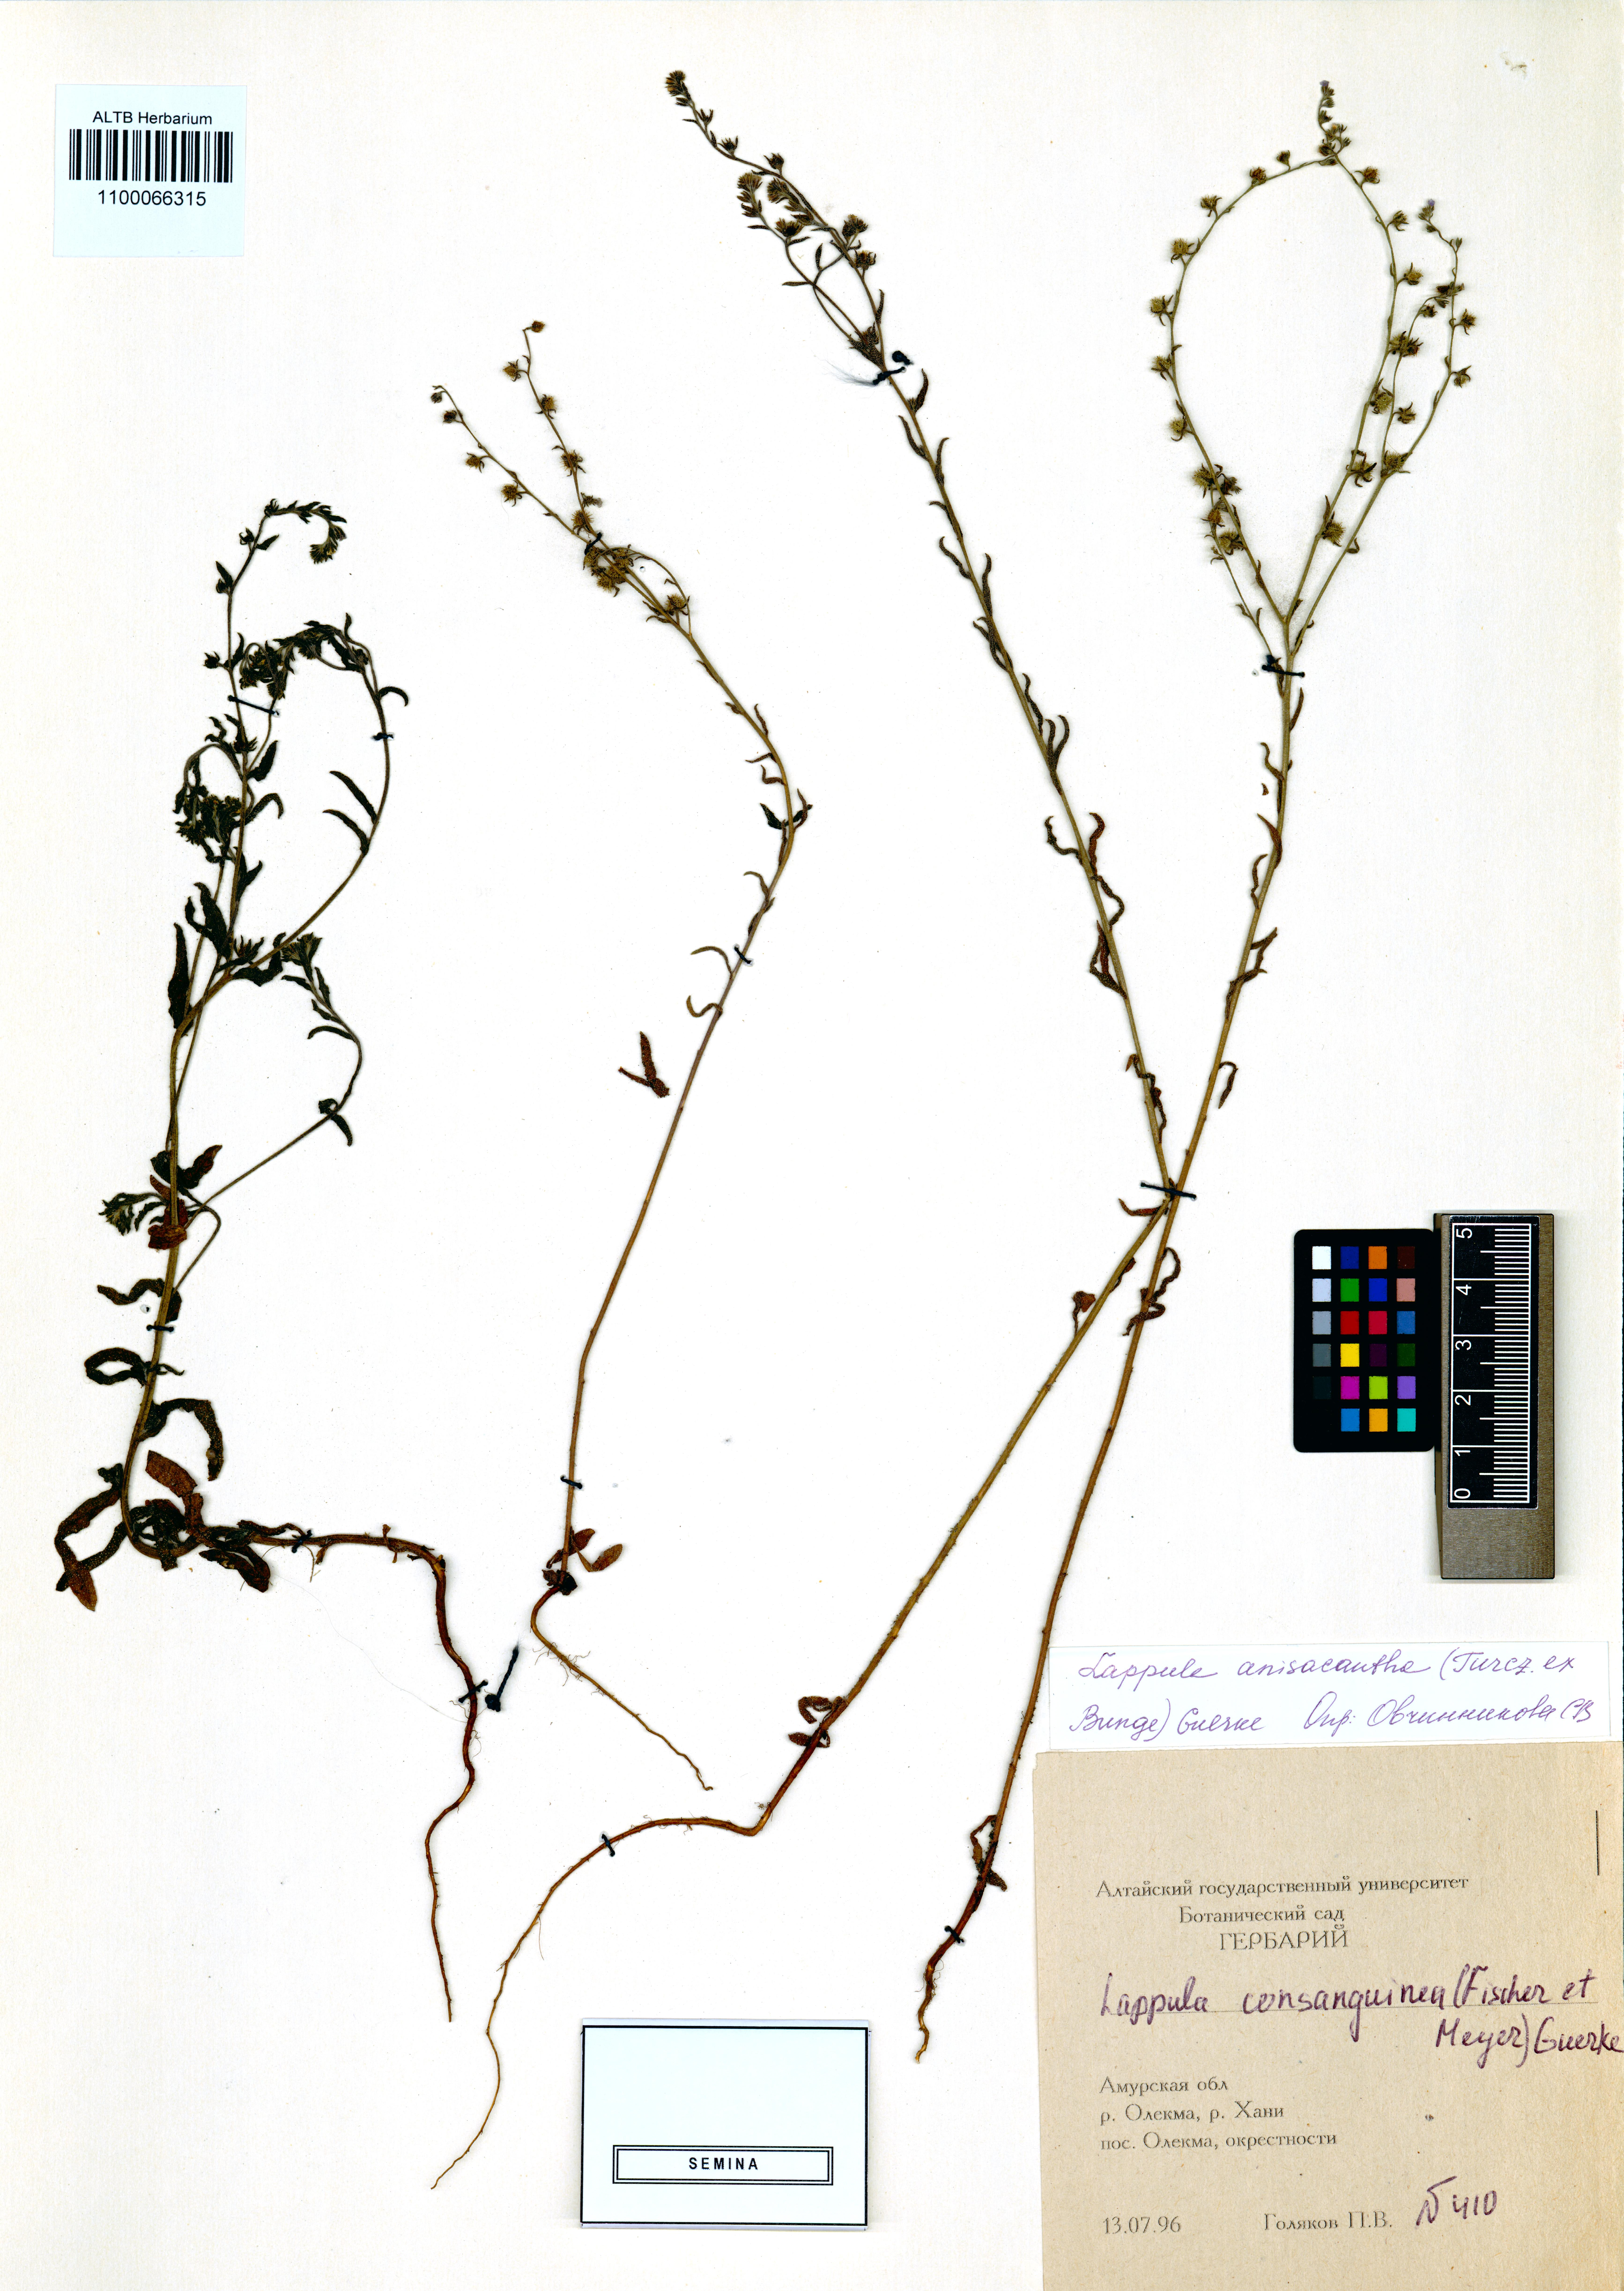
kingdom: Plantae
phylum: Tracheophyta
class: Magnoliopsida
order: Boraginales
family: Boraginaceae
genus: Lappula
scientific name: Lappula intermedia
